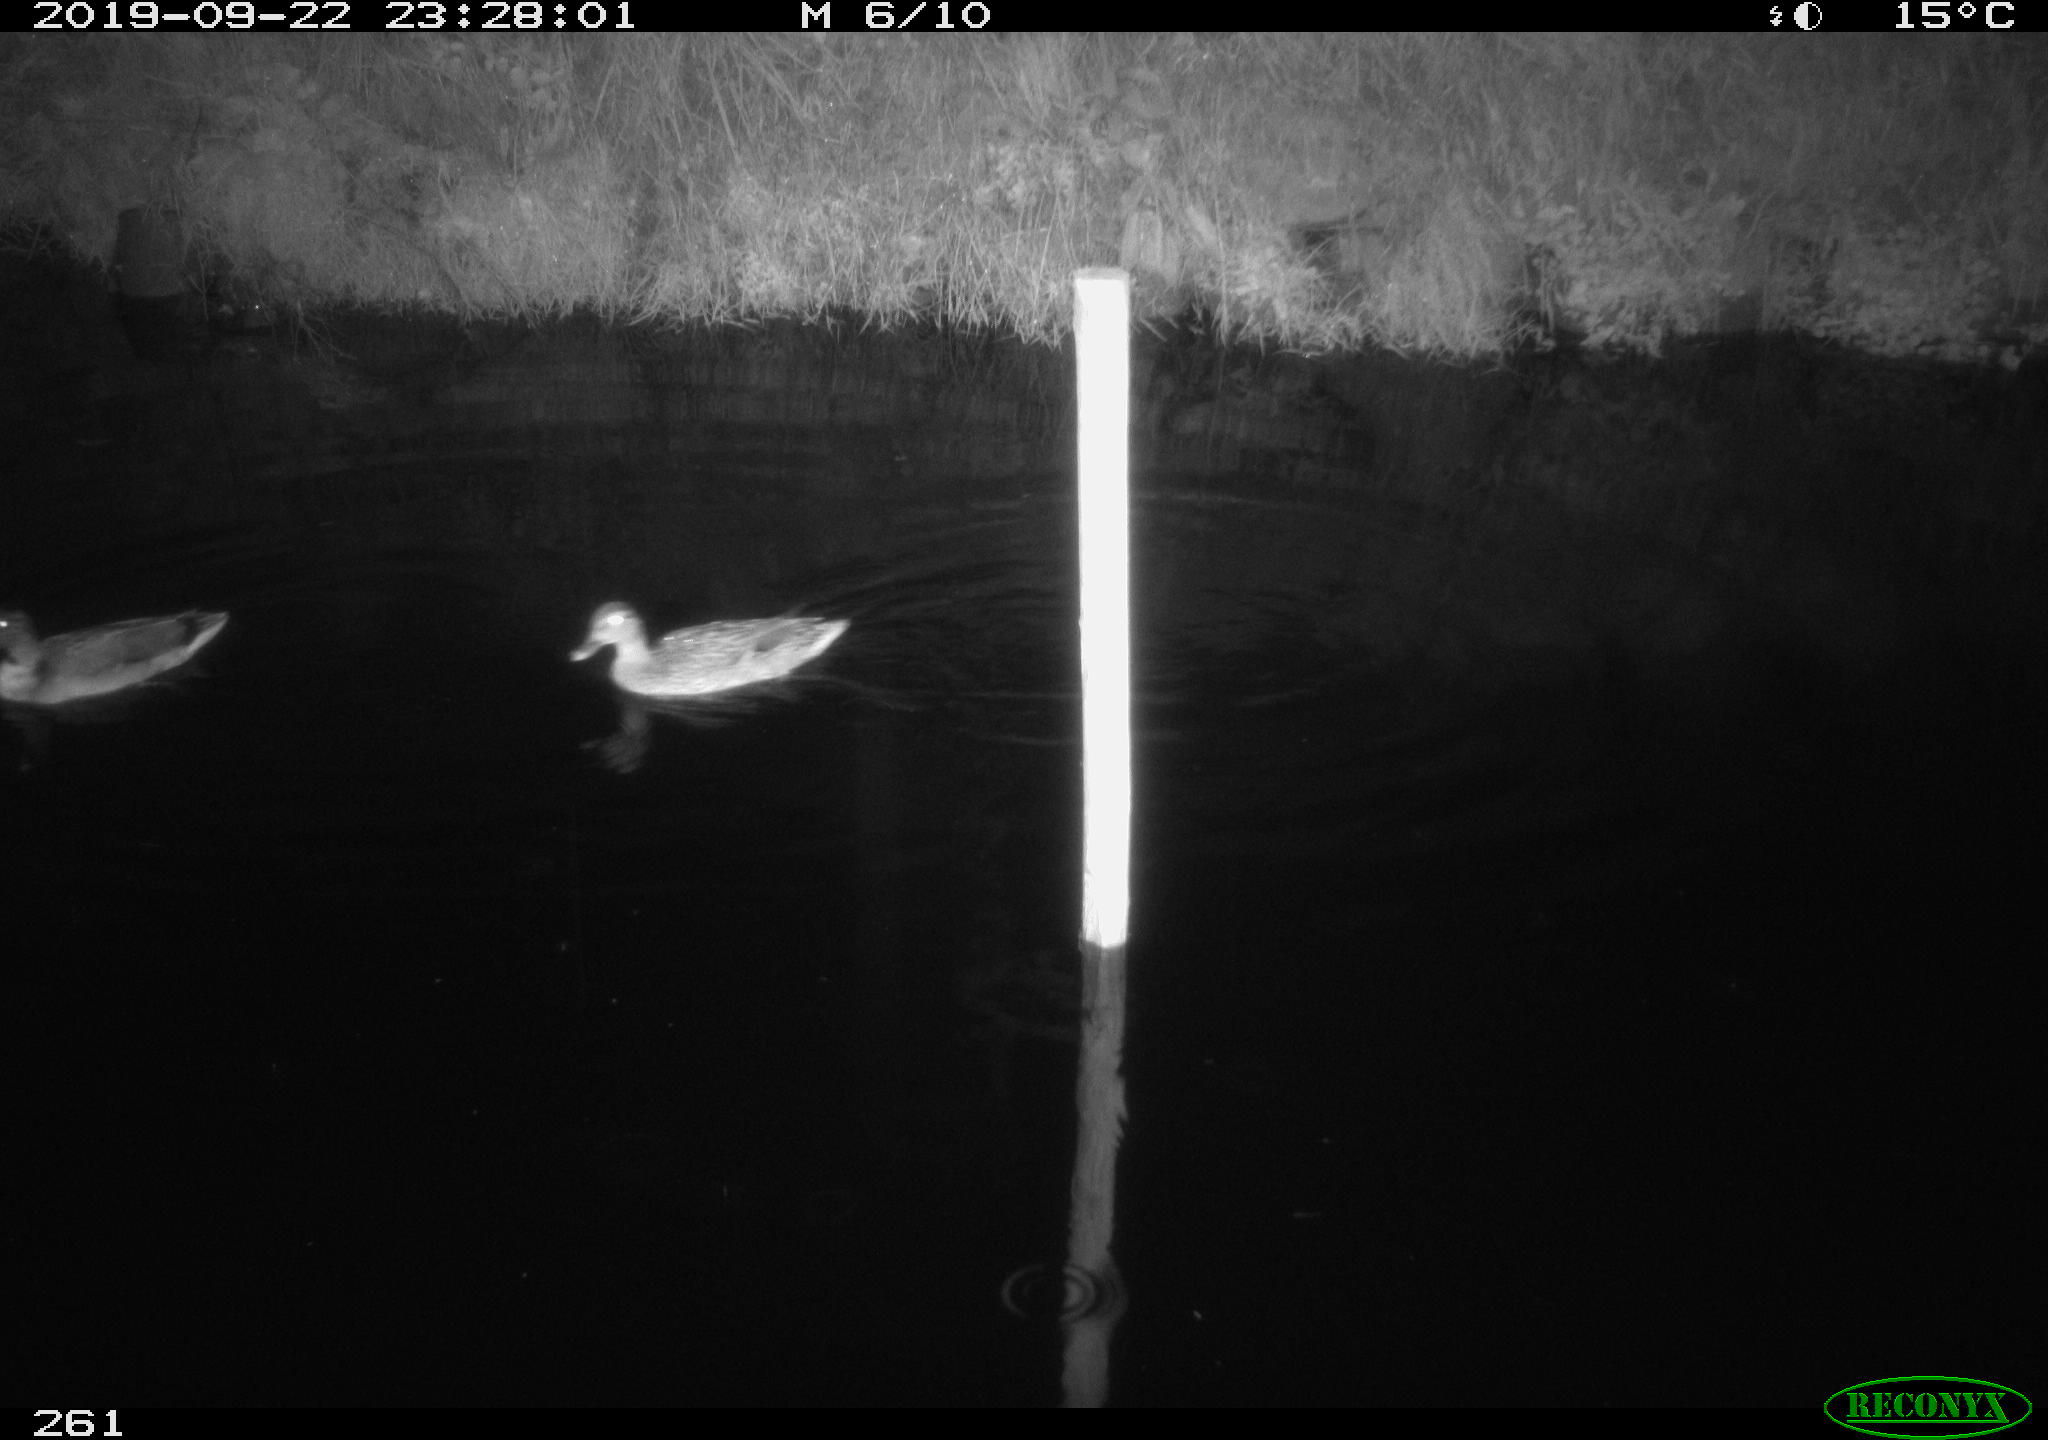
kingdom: Animalia
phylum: Chordata
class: Aves
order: Anseriformes
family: Anatidae
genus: Anas
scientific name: Anas platyrhynchos
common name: Mallard
